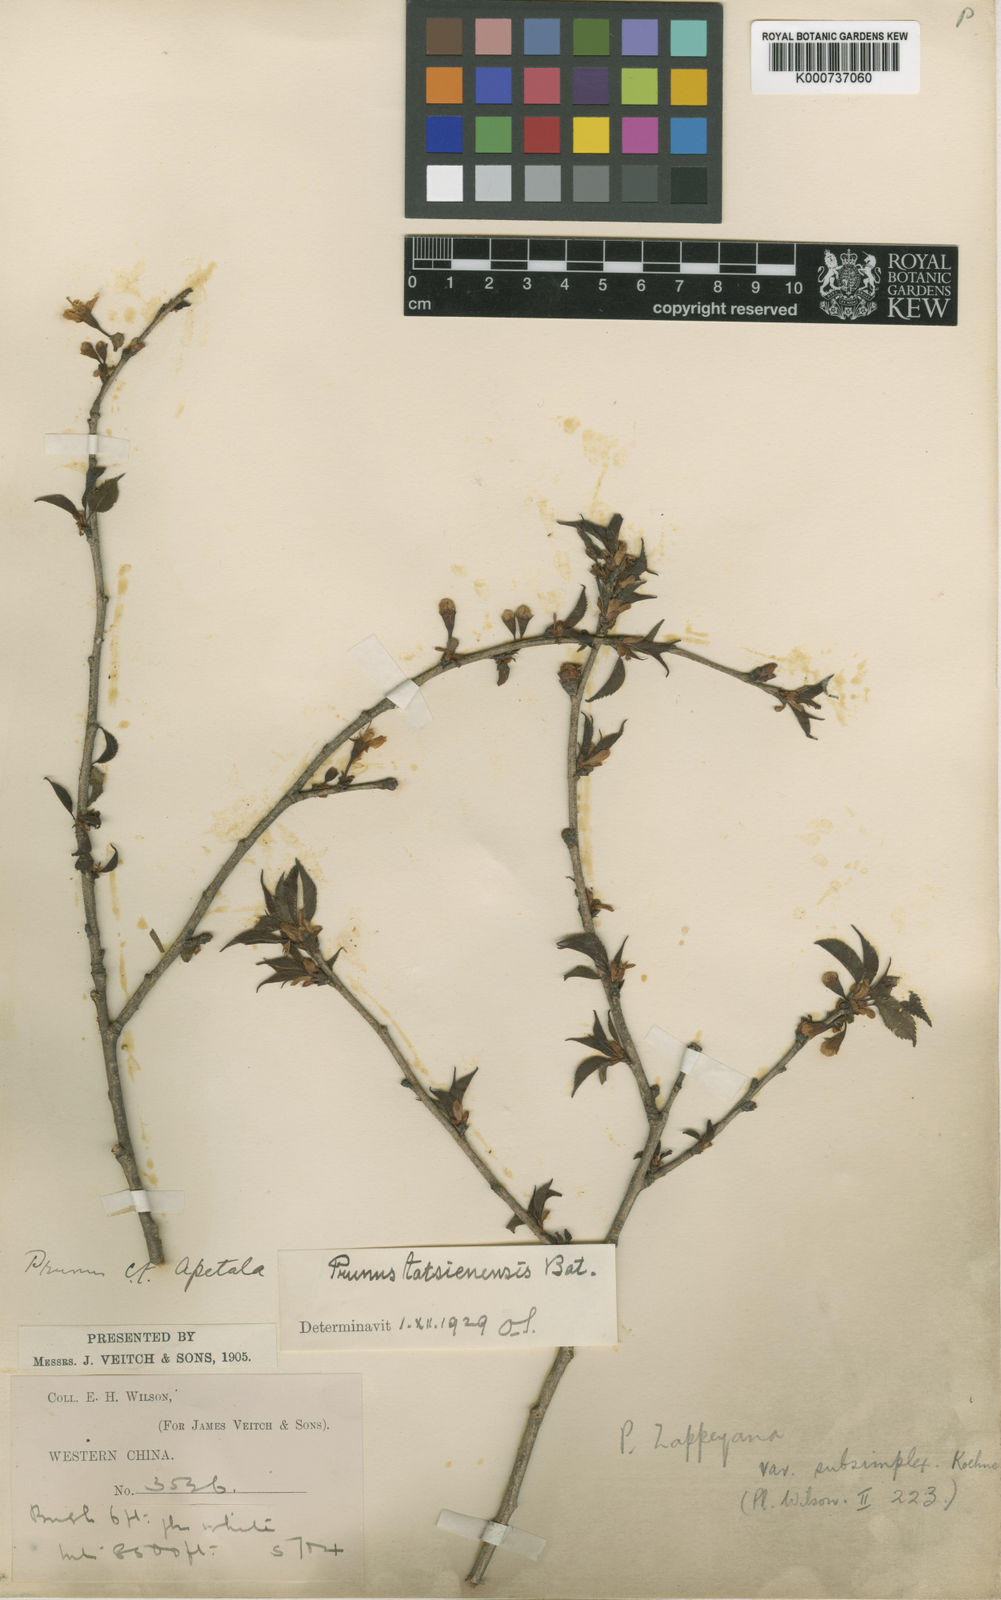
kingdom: Plantae
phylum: Tracheophyta
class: Magnoliopsida
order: Rosales
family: Rosaceae
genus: Prunus
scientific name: Prunus tatsienensis
